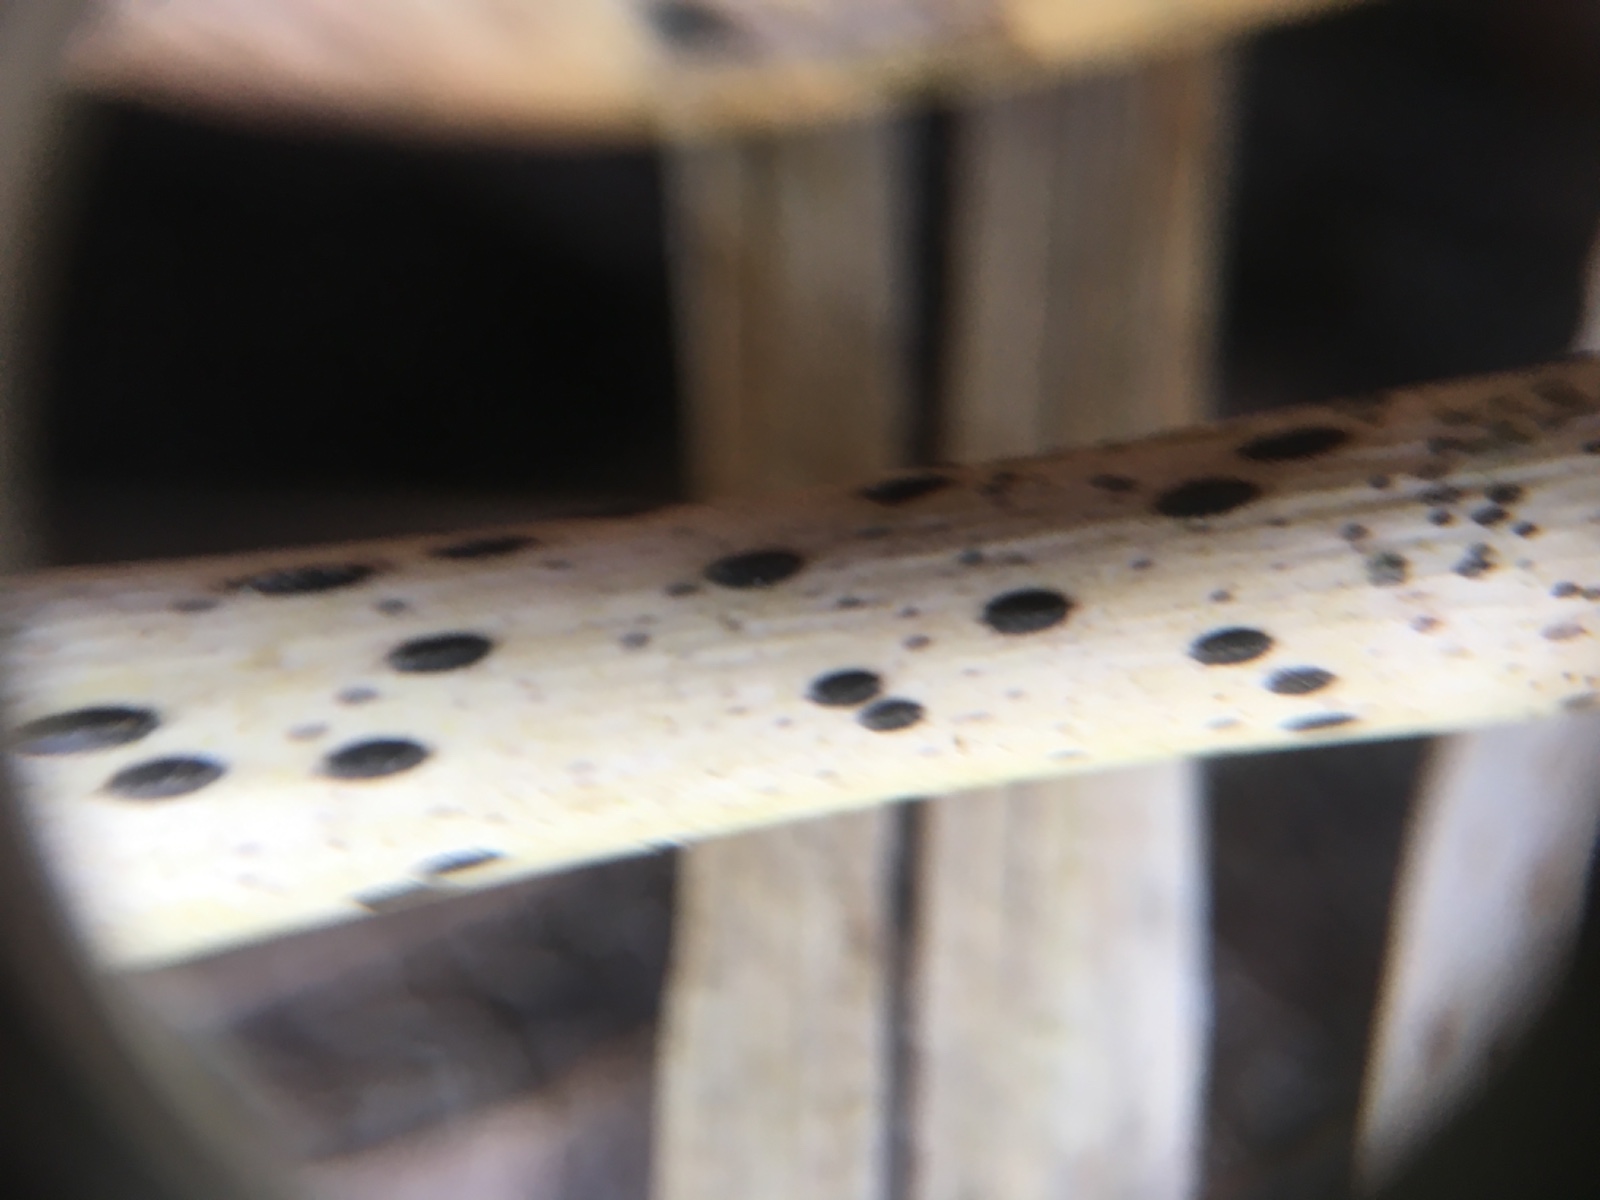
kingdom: Fungi
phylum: Ascomycota
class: Leotiomycetes
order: Rhytismatales
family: Rhytismataceae
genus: Lophodermium
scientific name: Lophodermium
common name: fureplet
